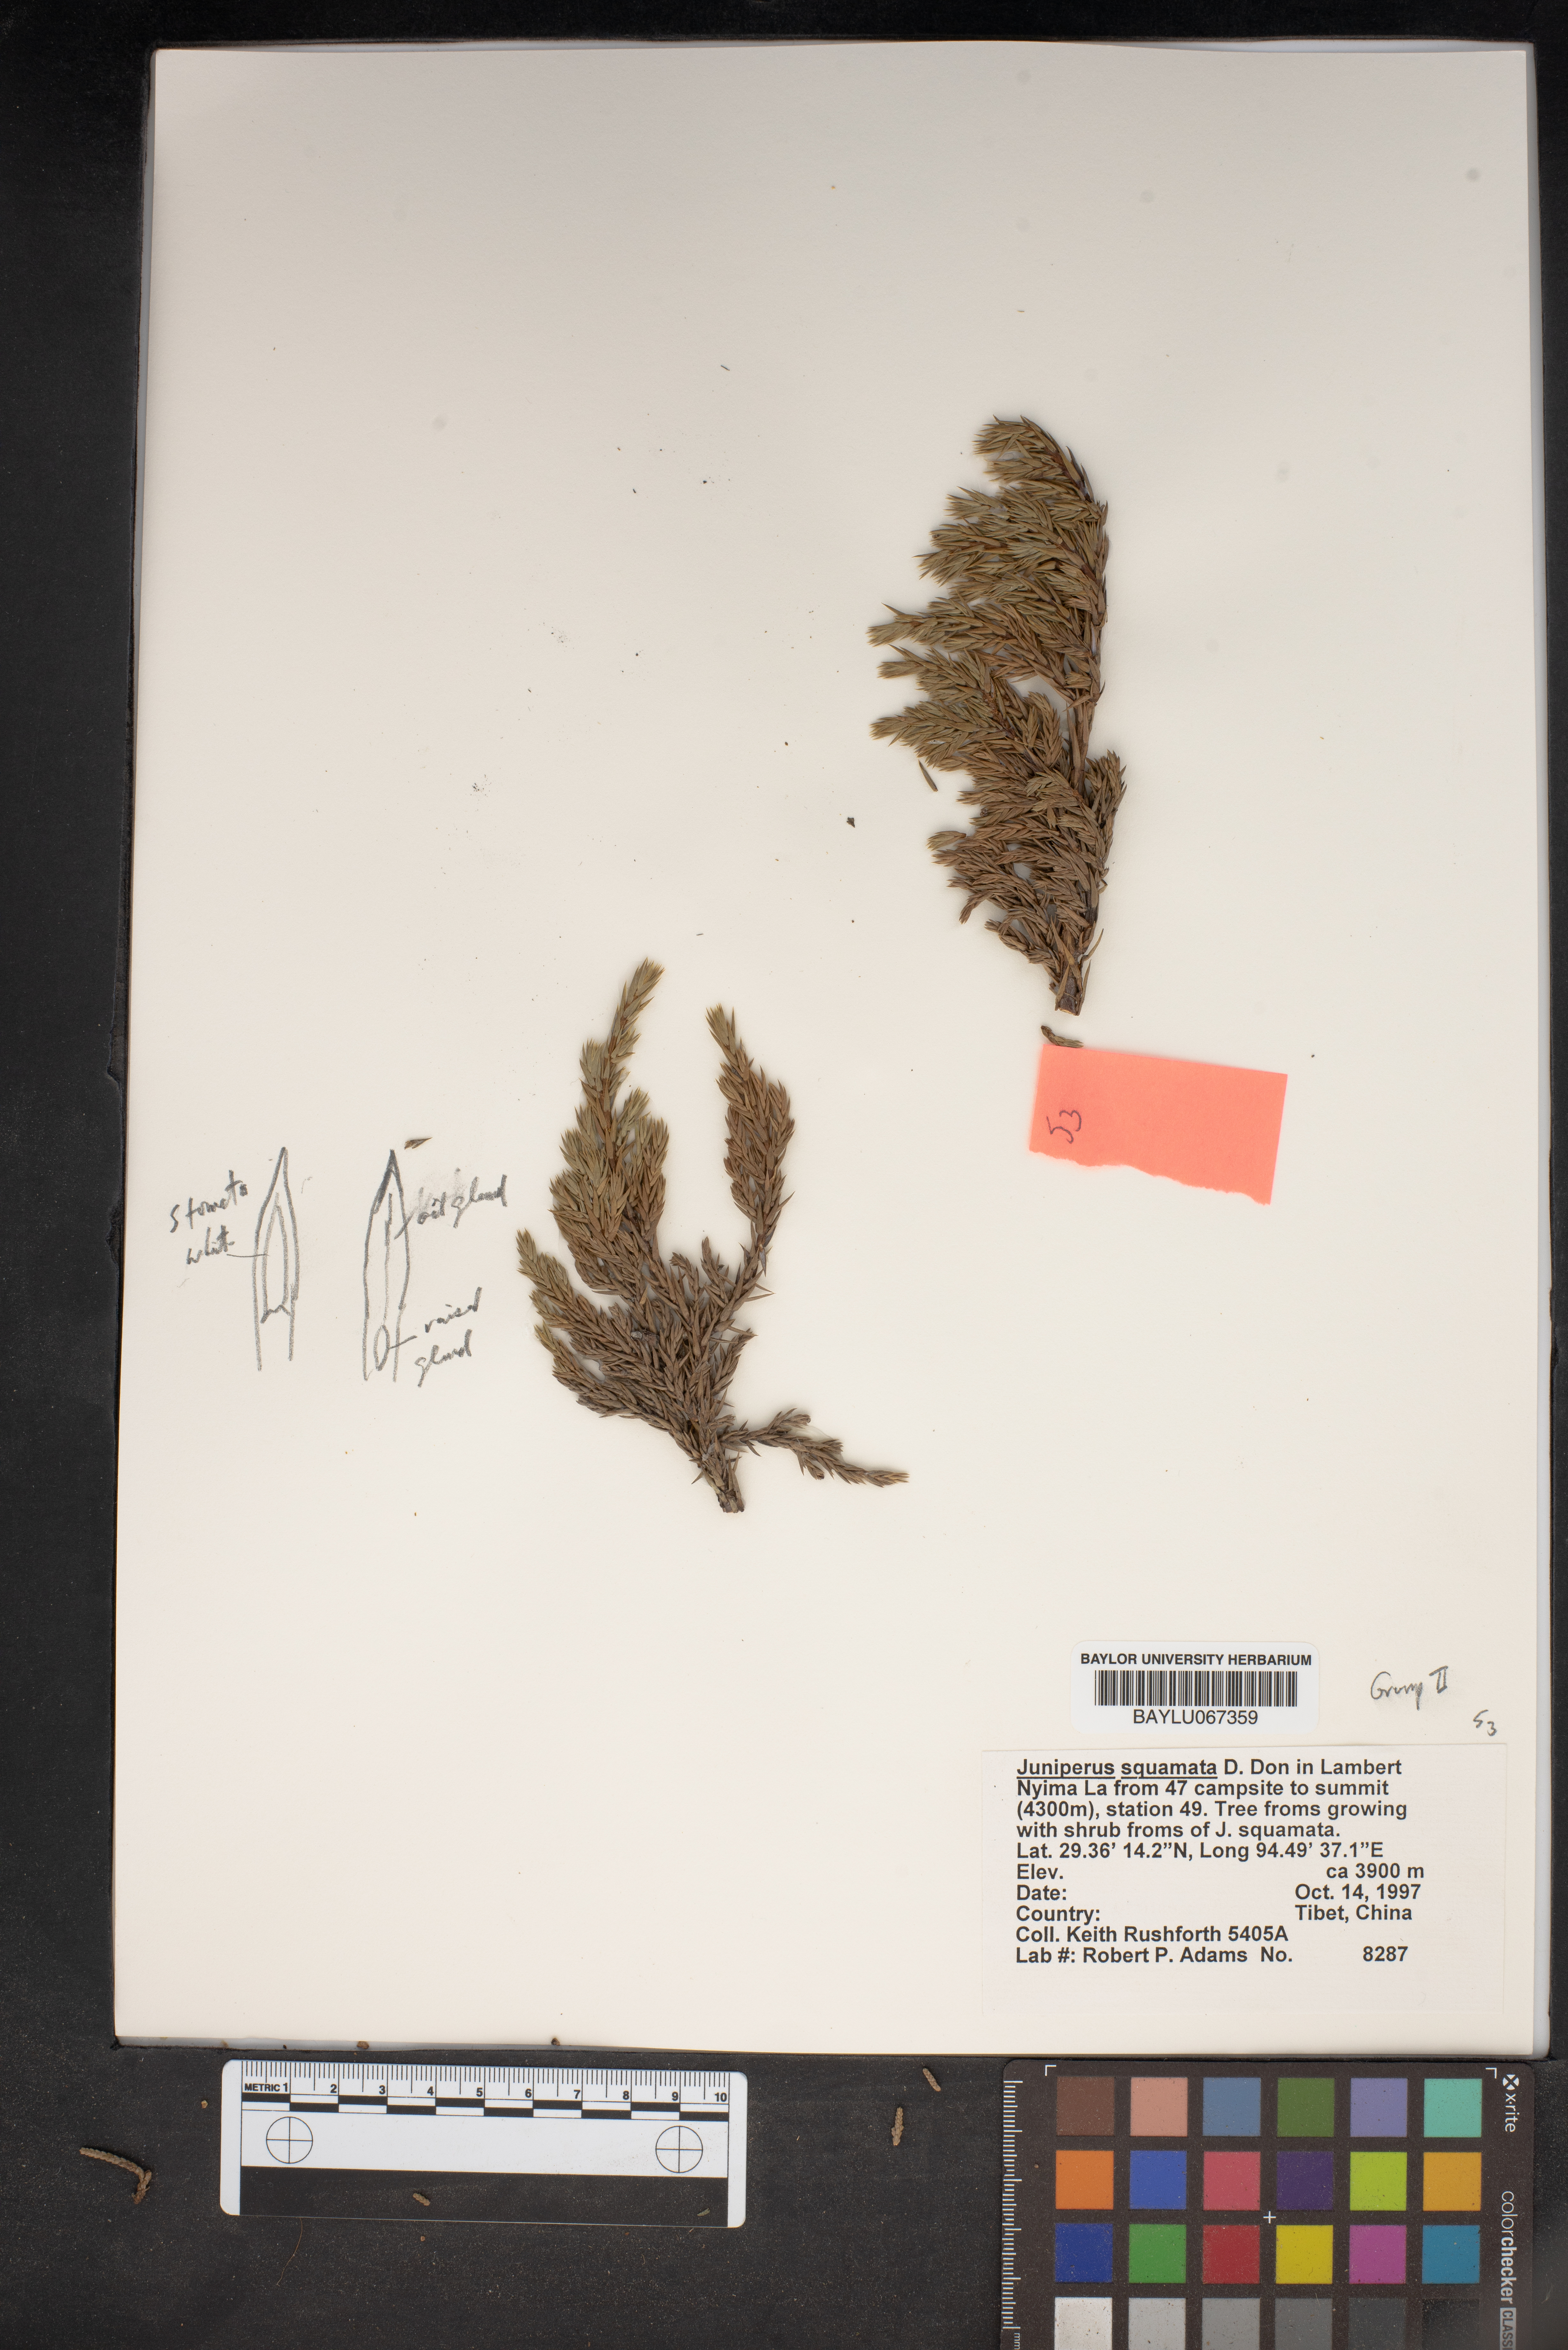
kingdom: Plantae
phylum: Tracheophyta
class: Pinopsida
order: Pinales
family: Cupressaceae
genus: Juniperus
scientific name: Juniperus squamata
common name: Flaky juniper
